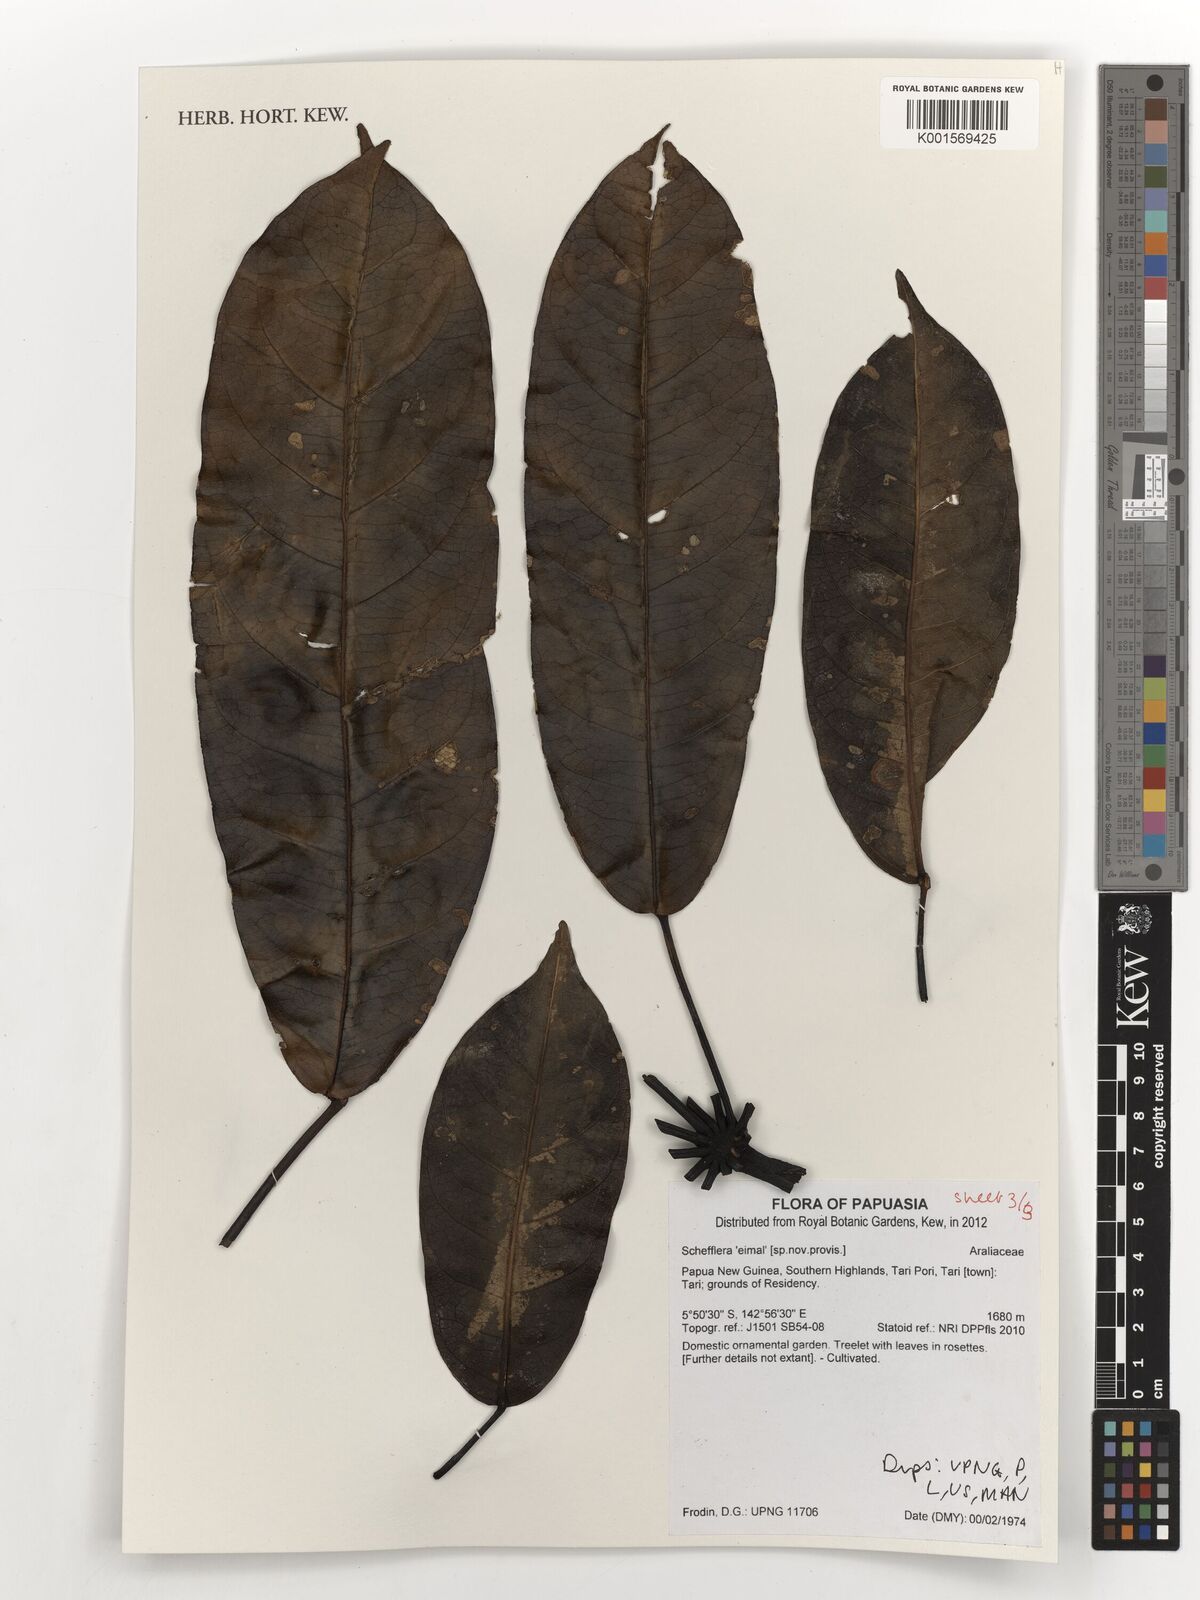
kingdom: Plantae
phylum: Tracheophyta
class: Magnoliopsida
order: Apiales
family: Araliaceae
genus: Schefflera
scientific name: Schefflera
